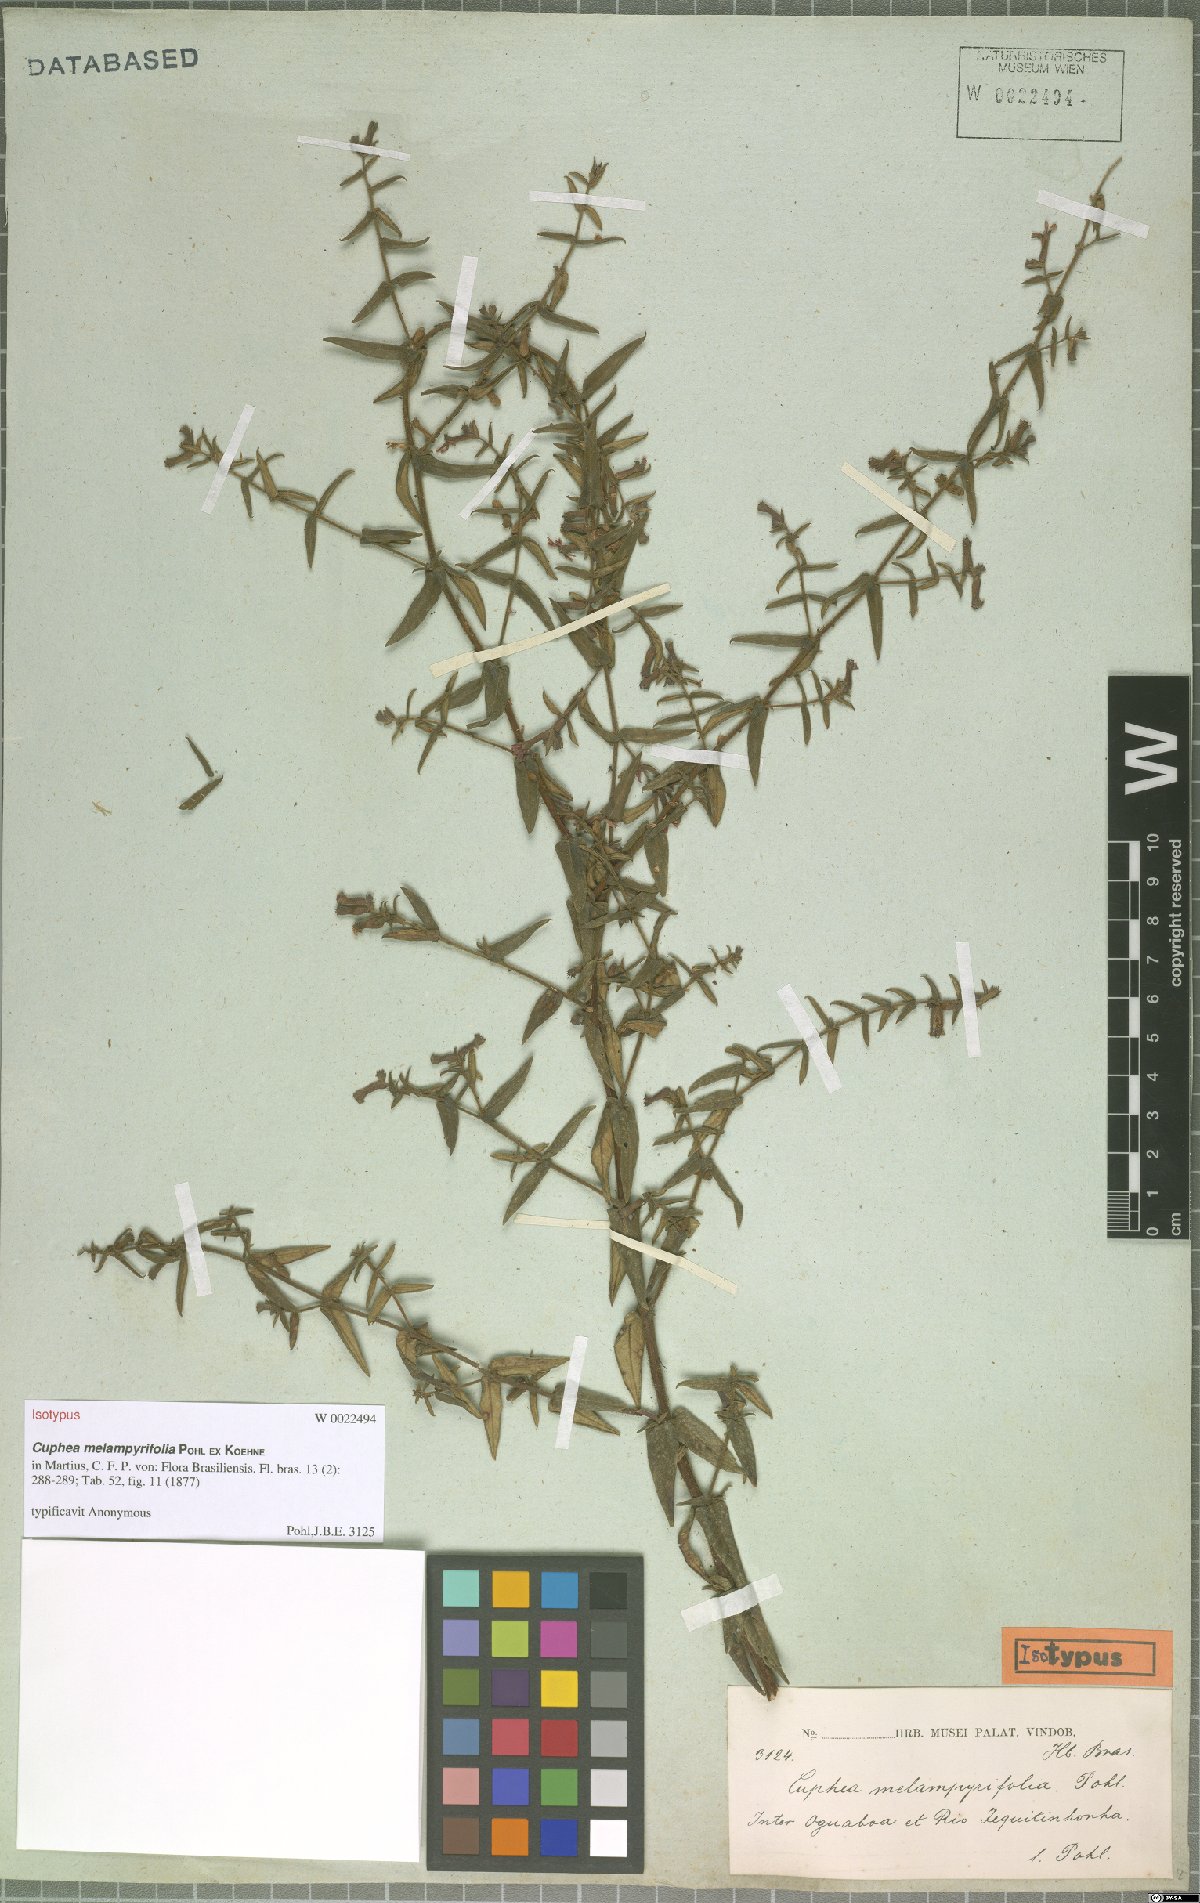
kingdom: Plantae
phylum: Tracheophyta
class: Magnoliopsida
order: Myrtales
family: Lythraceae
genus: Cuphea
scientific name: Cuphea sessiliflora
